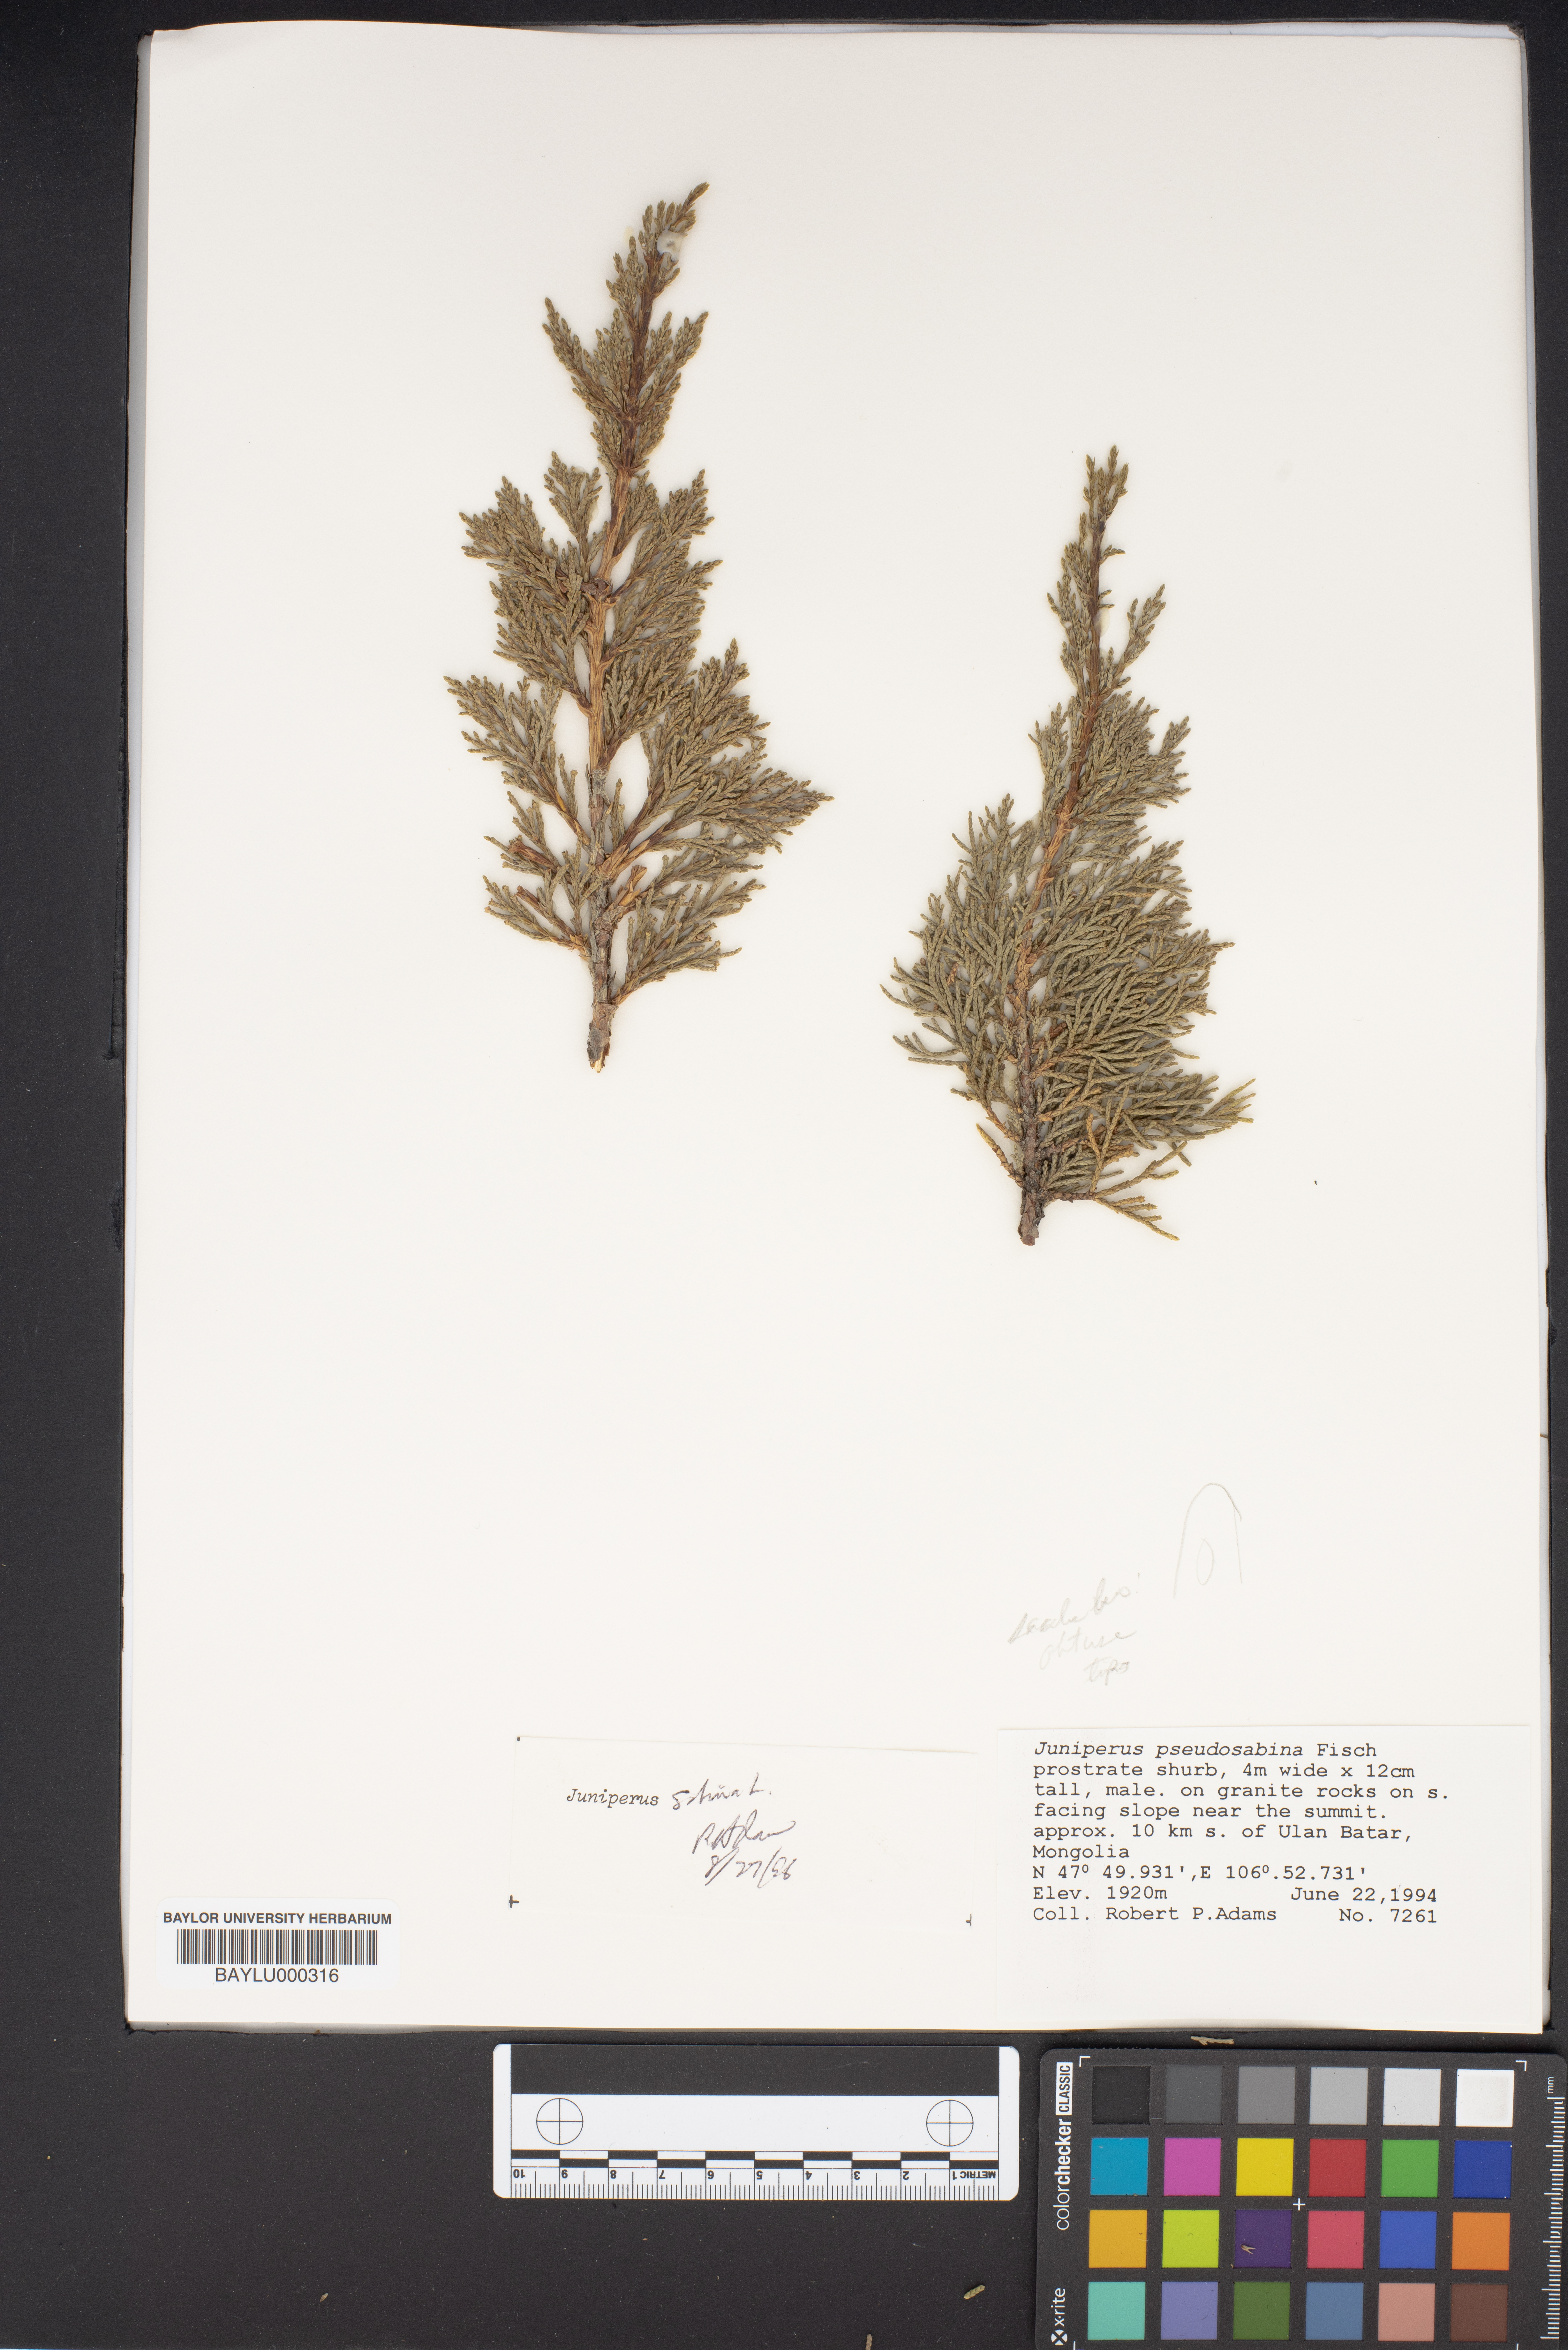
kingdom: Plantae
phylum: Tracheophyta
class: Pinopsida
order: Pinales
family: Cupressaceae
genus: Juniperus
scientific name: Juniperus pseudosabina
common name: Turkestan juniper
